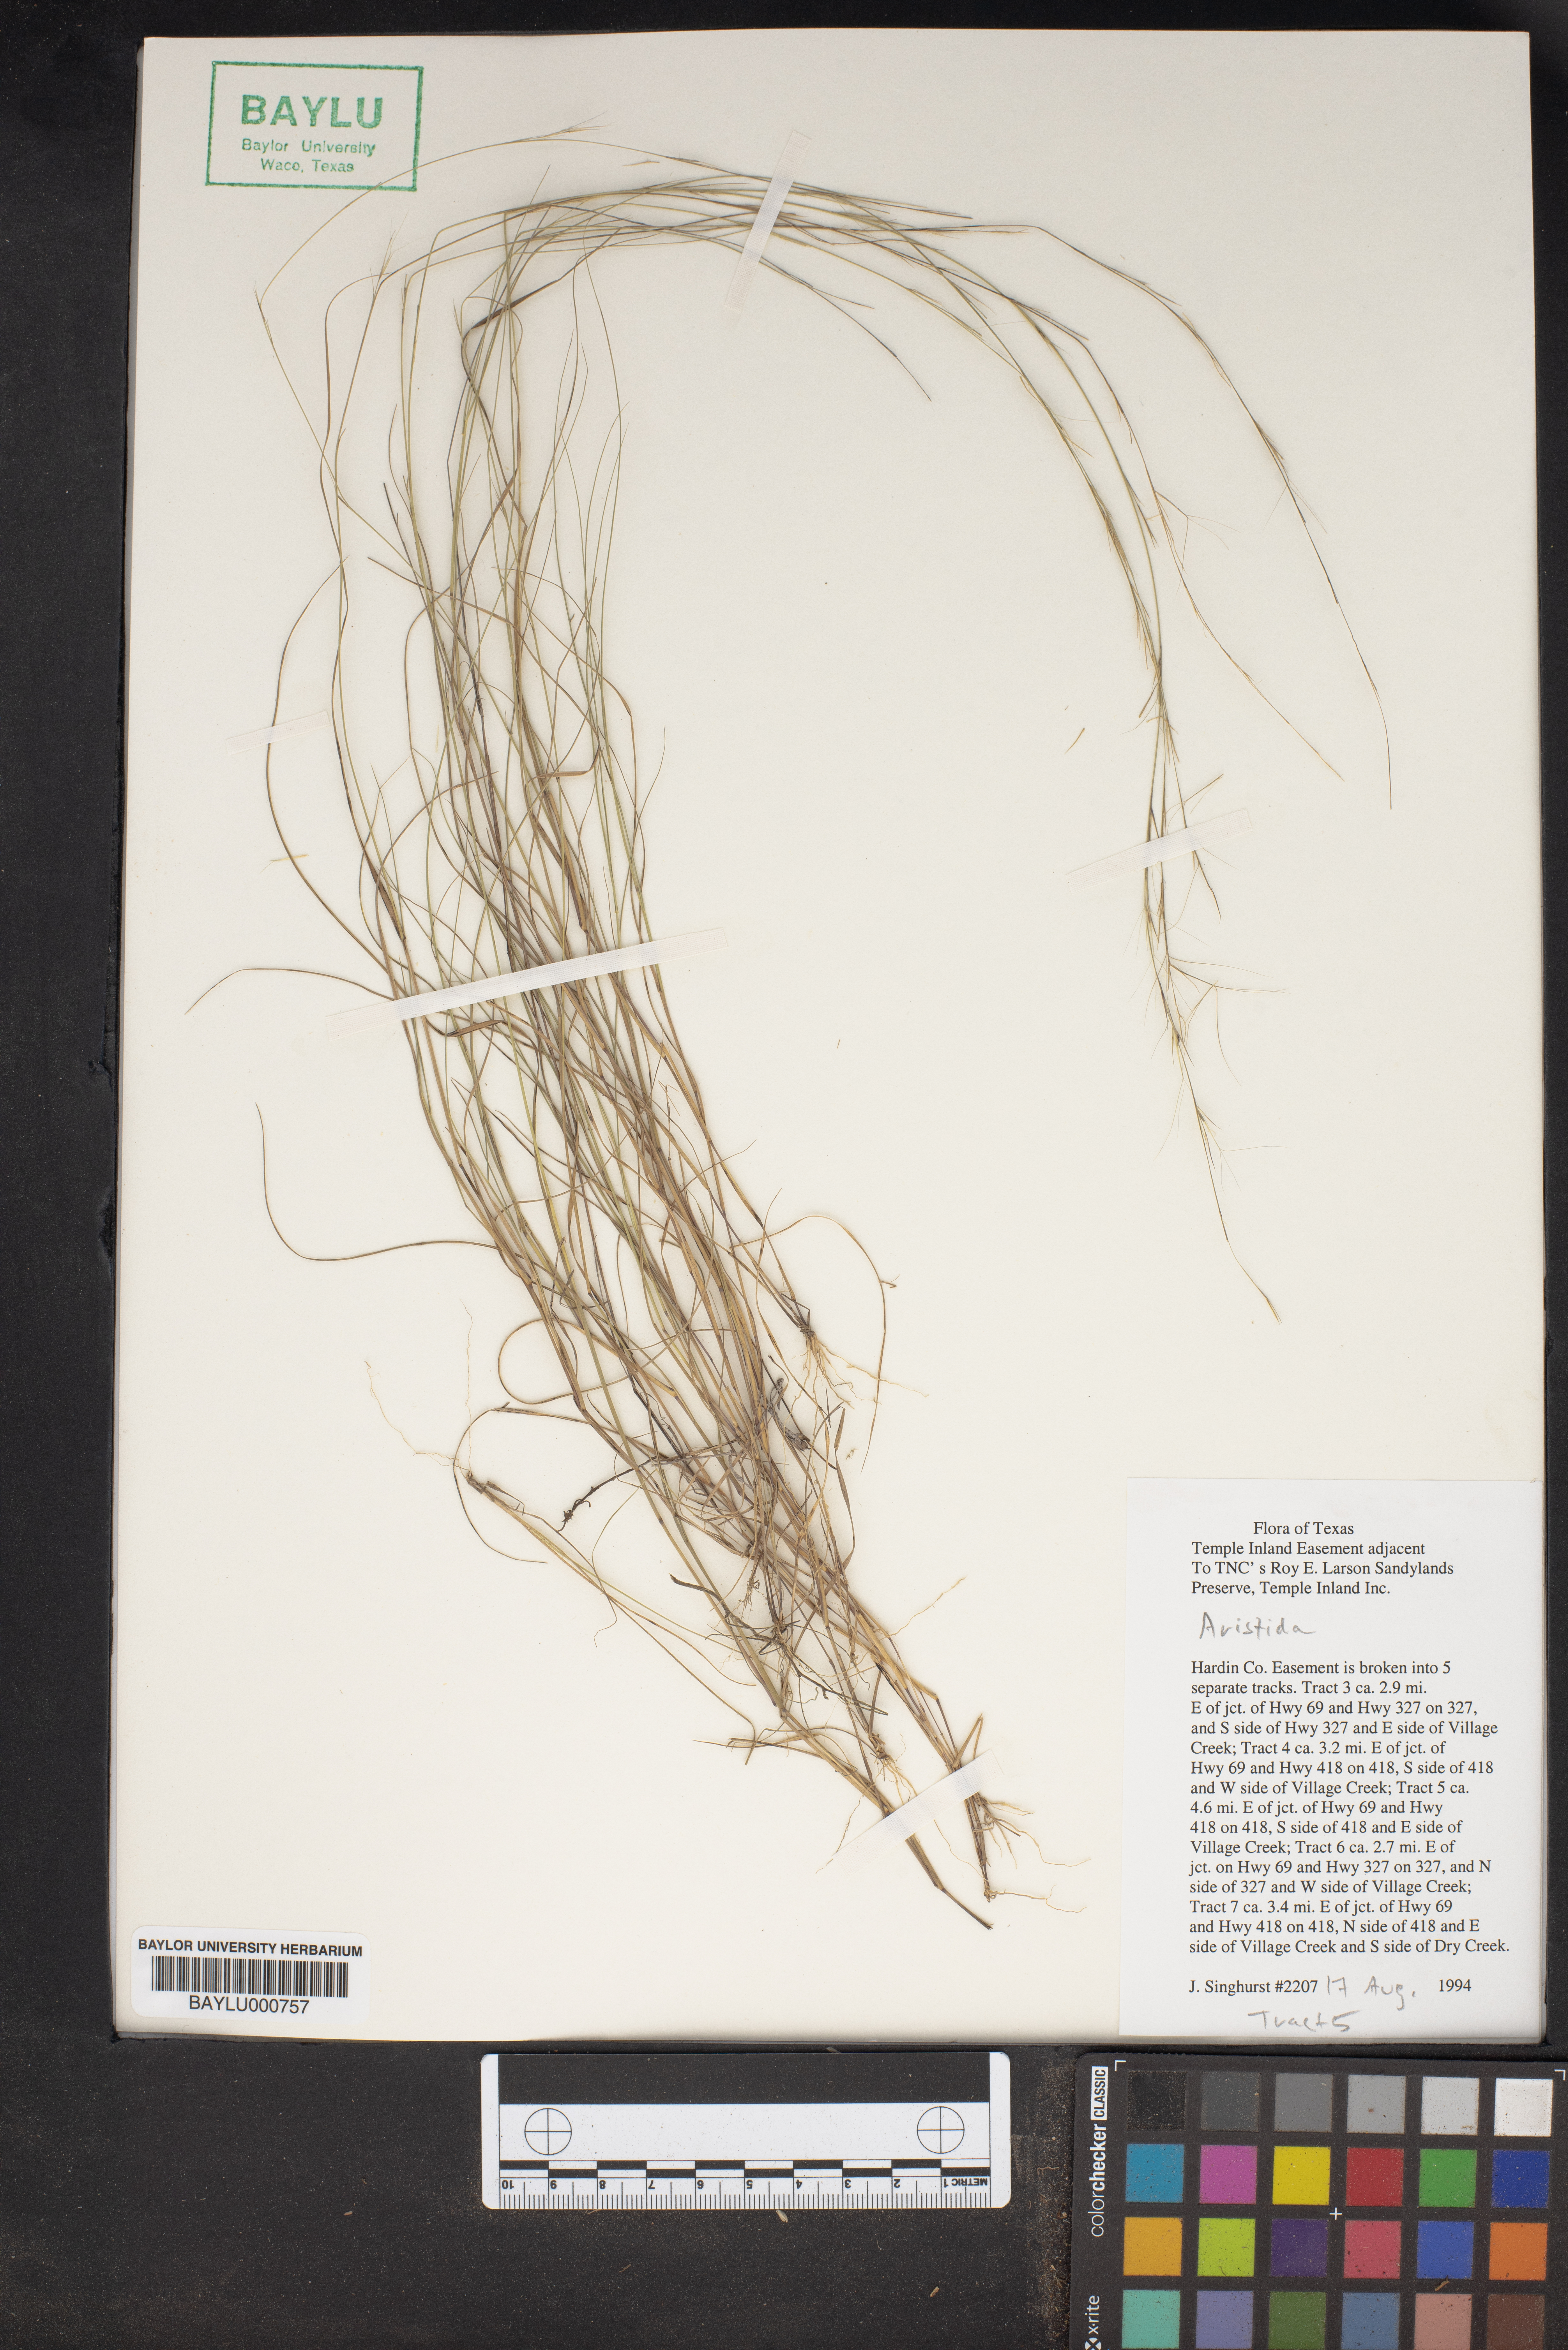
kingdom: Plantae
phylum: Tracheophyta
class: Liliopsida
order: Poales
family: Poaceae
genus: Aristida
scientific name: Aristida
